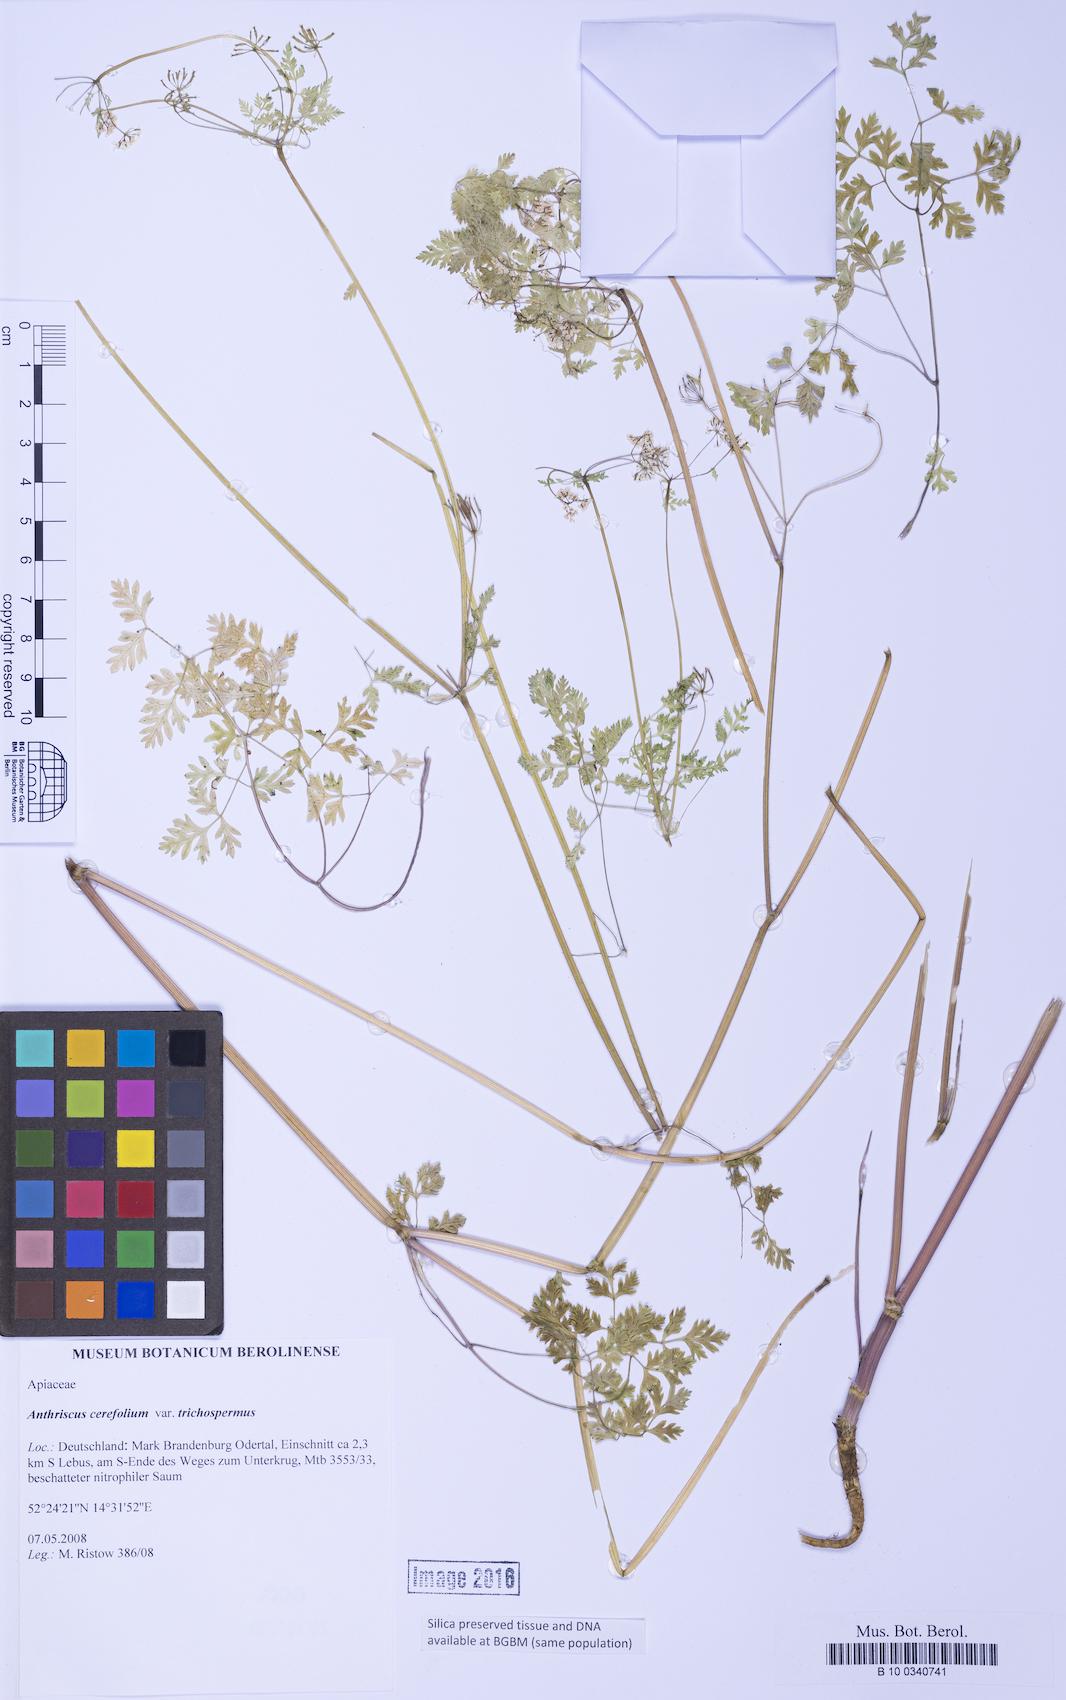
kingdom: Plantae
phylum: Tracheophyta
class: Magnoliopsida
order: Apiales
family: Apiaceae
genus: Anthriscus
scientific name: Anthriscus cerefolium
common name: Garden chervil
